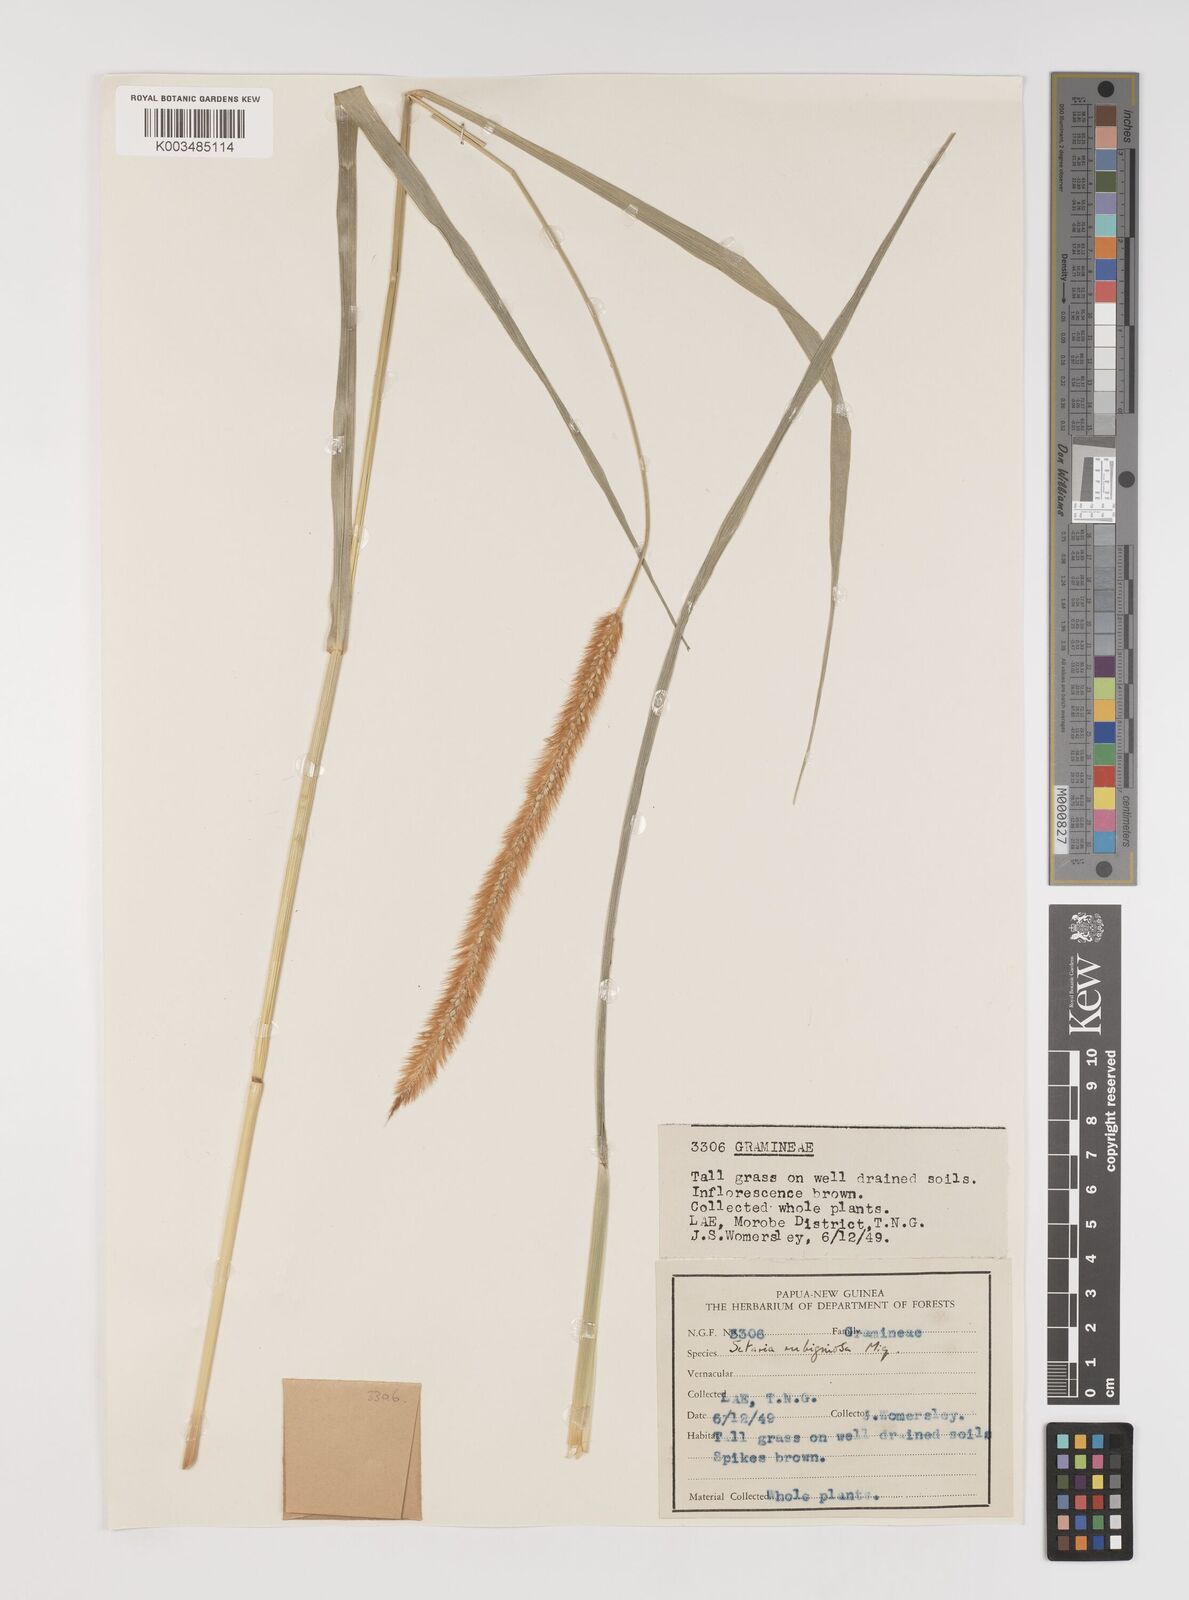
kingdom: Plantae
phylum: Tracheophyta
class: Liliopsida
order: Poales
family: Poaceae
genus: Setaria
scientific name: Setaria parviflora
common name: Knotroot bristle-grass
